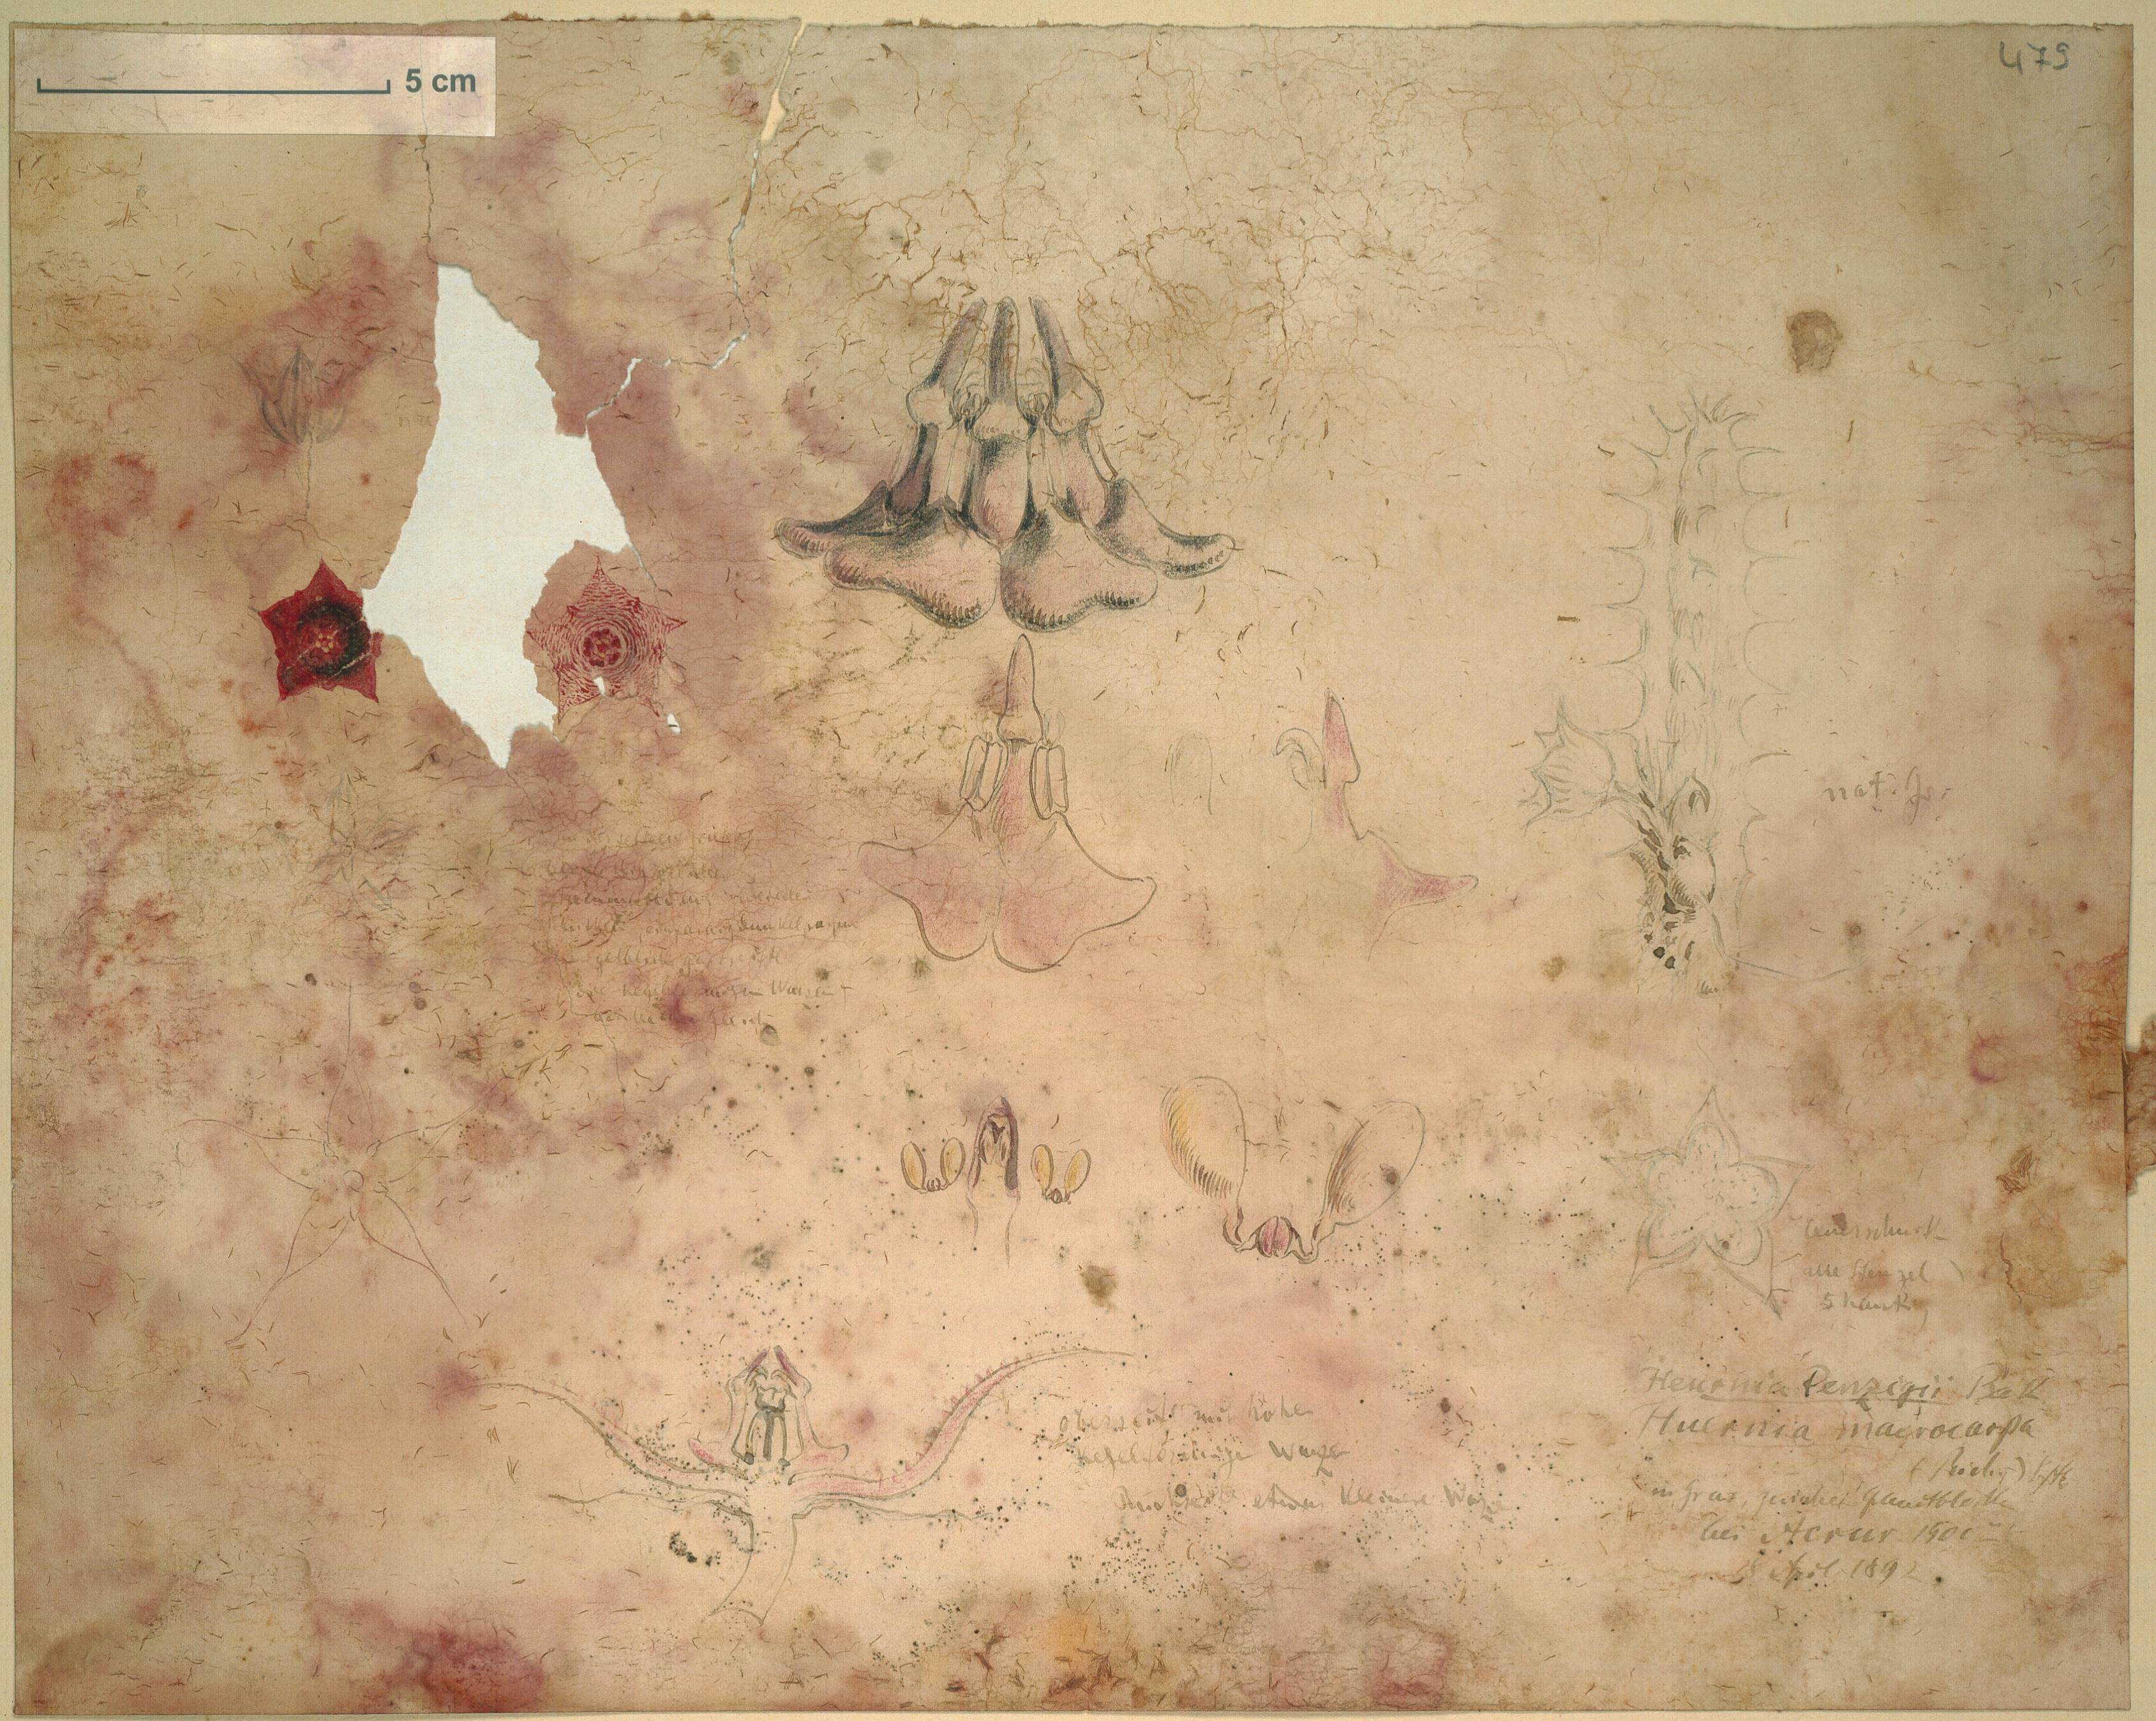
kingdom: Plantae
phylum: Tracheophyta
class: Magnoliopsida
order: Gentianales
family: Apocynaceae
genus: Ceropegia
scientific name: Ceropegia macrocarpa
